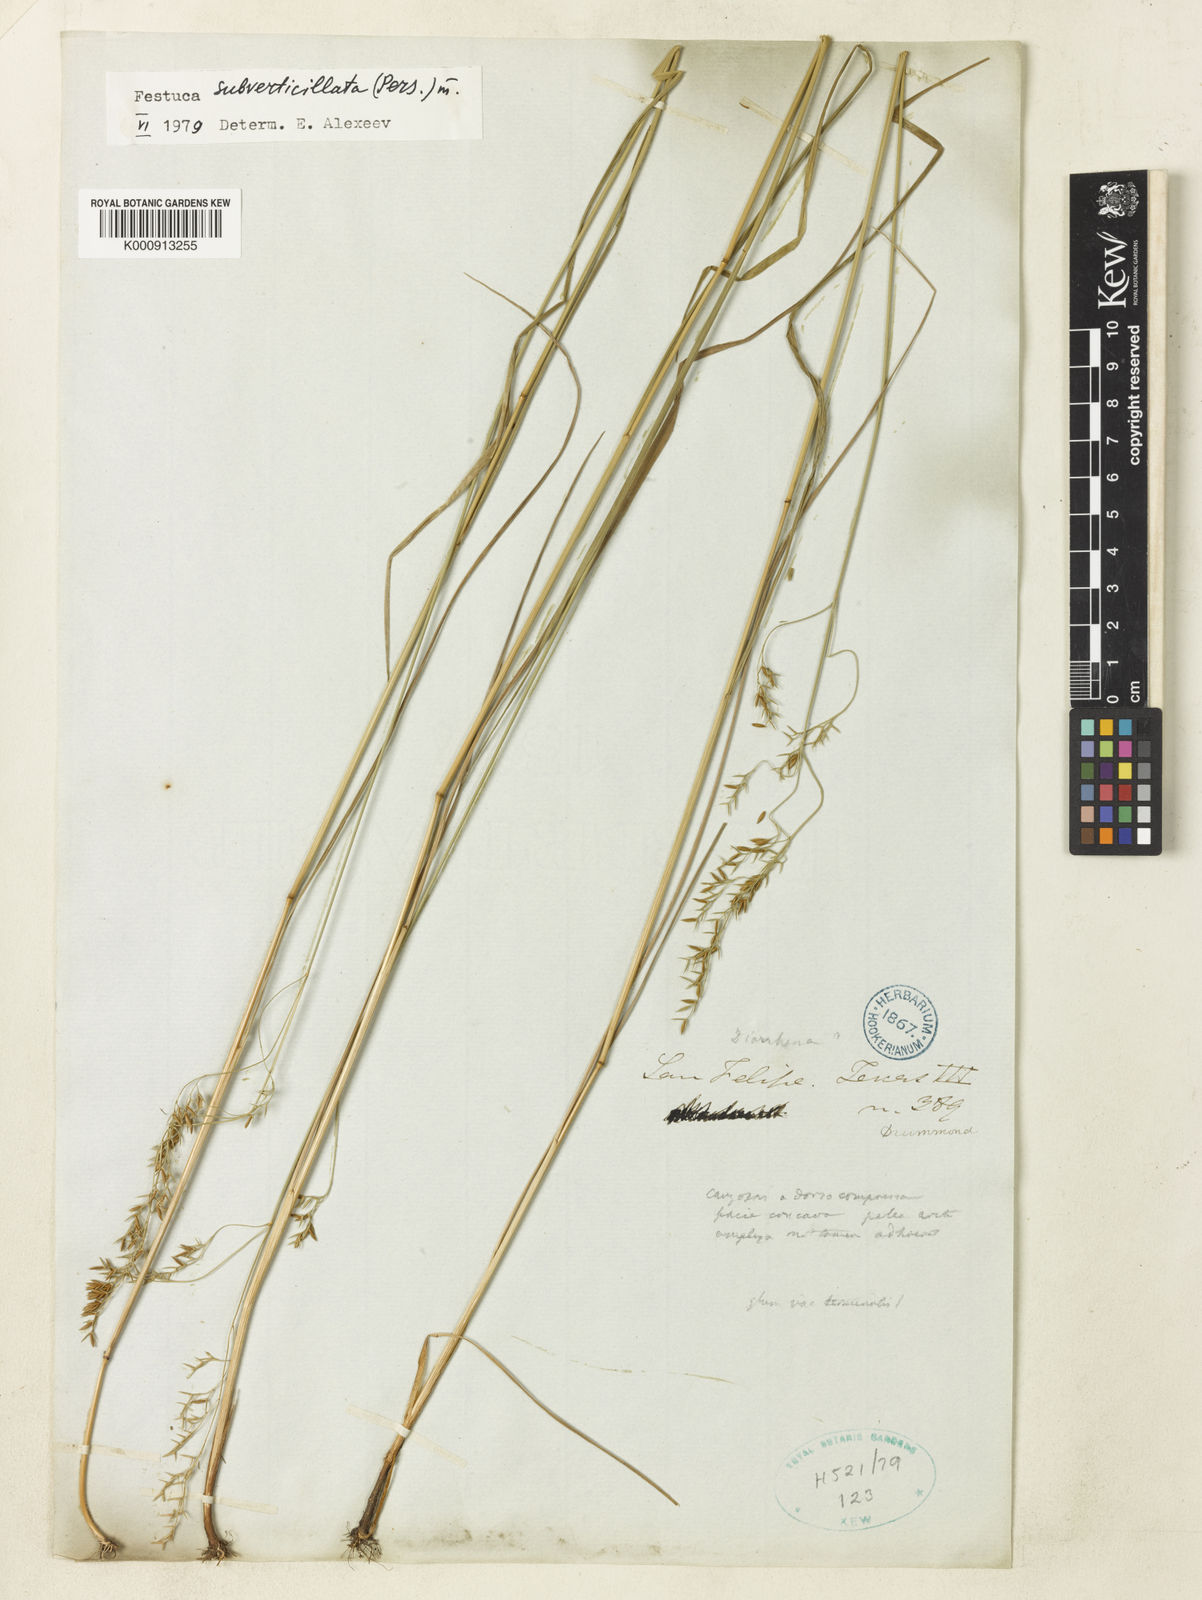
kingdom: Plantae
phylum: Tracheophyta
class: Liliopsida
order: Poales
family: Poaceae
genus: Festuca
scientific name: Festuca subverticillata
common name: Nodding fescue
